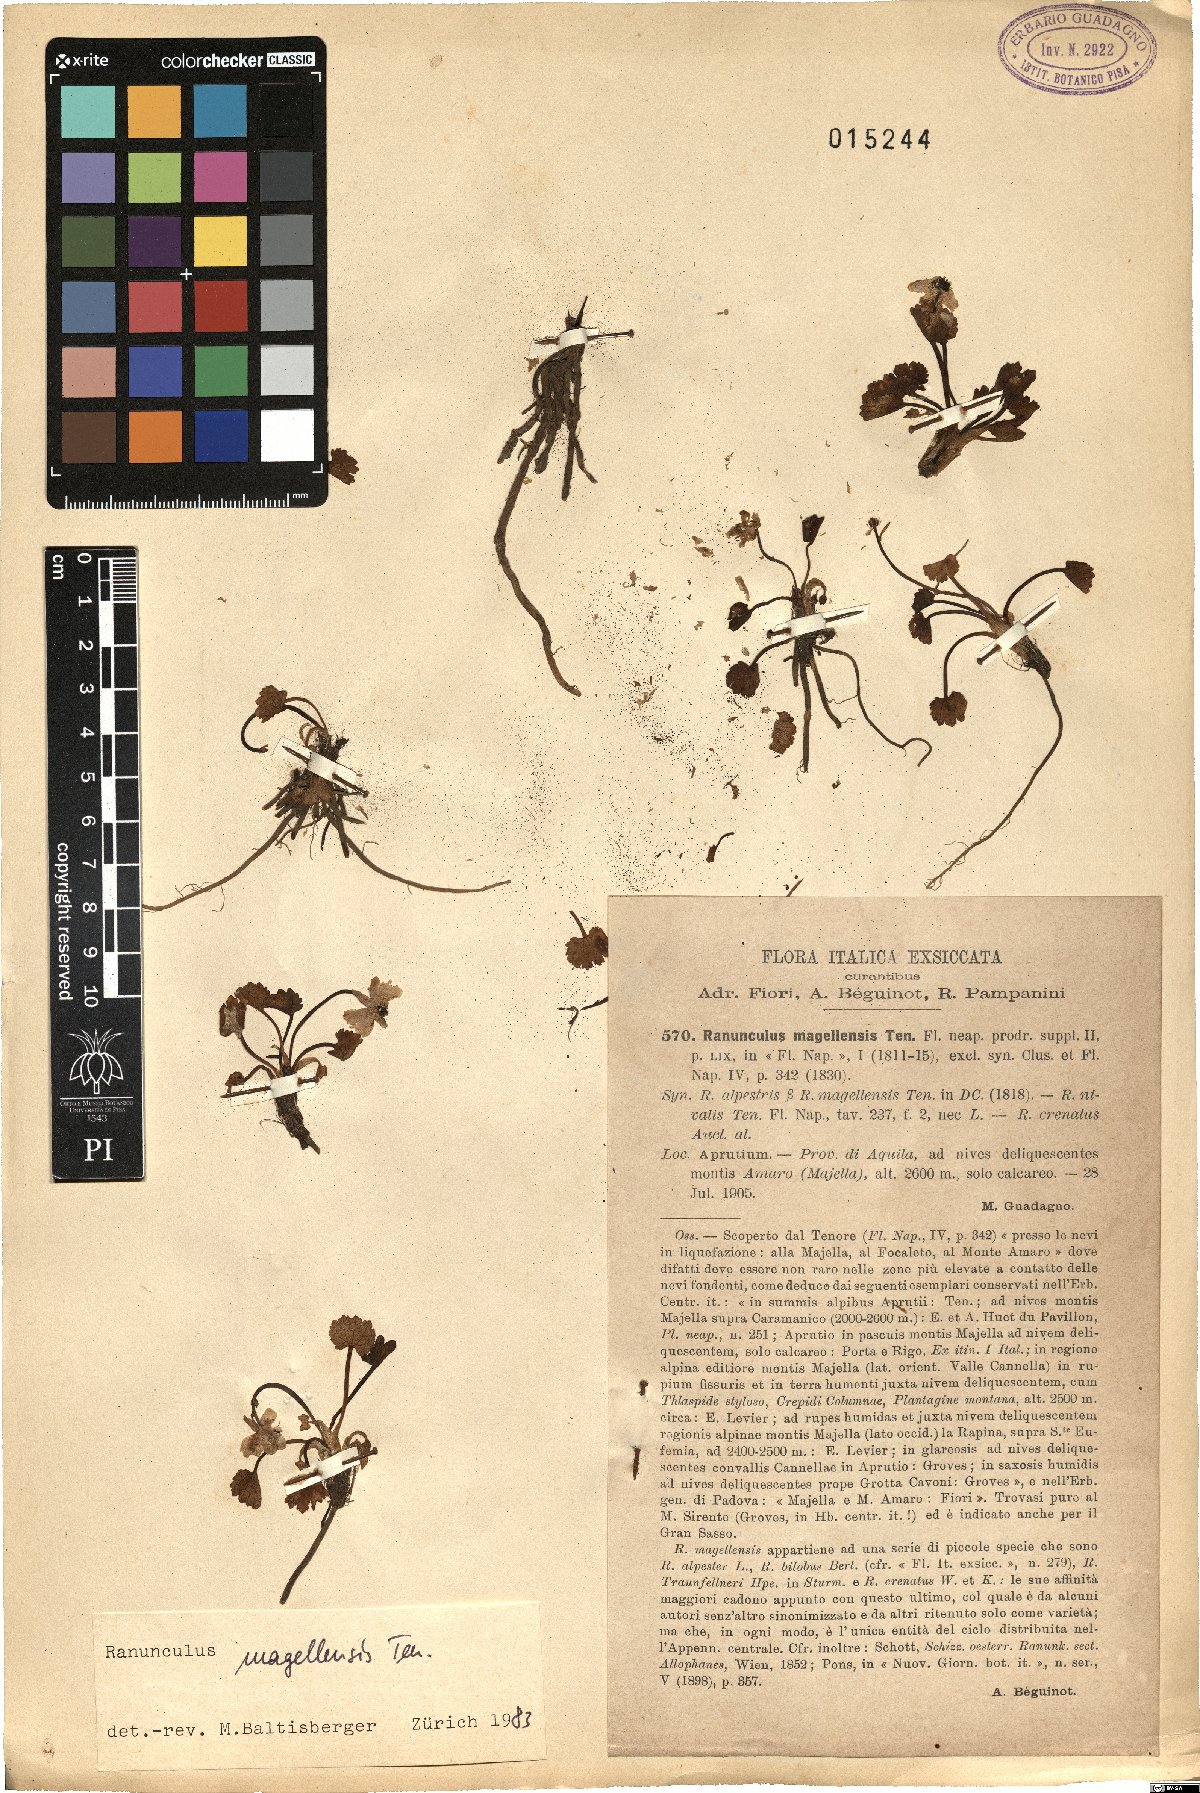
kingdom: Plantae
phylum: Tracheophyta
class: Magnoliopsida
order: Ranunculales
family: Ranunculaceae
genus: Ranunculus
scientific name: Ranunculus magellensis
